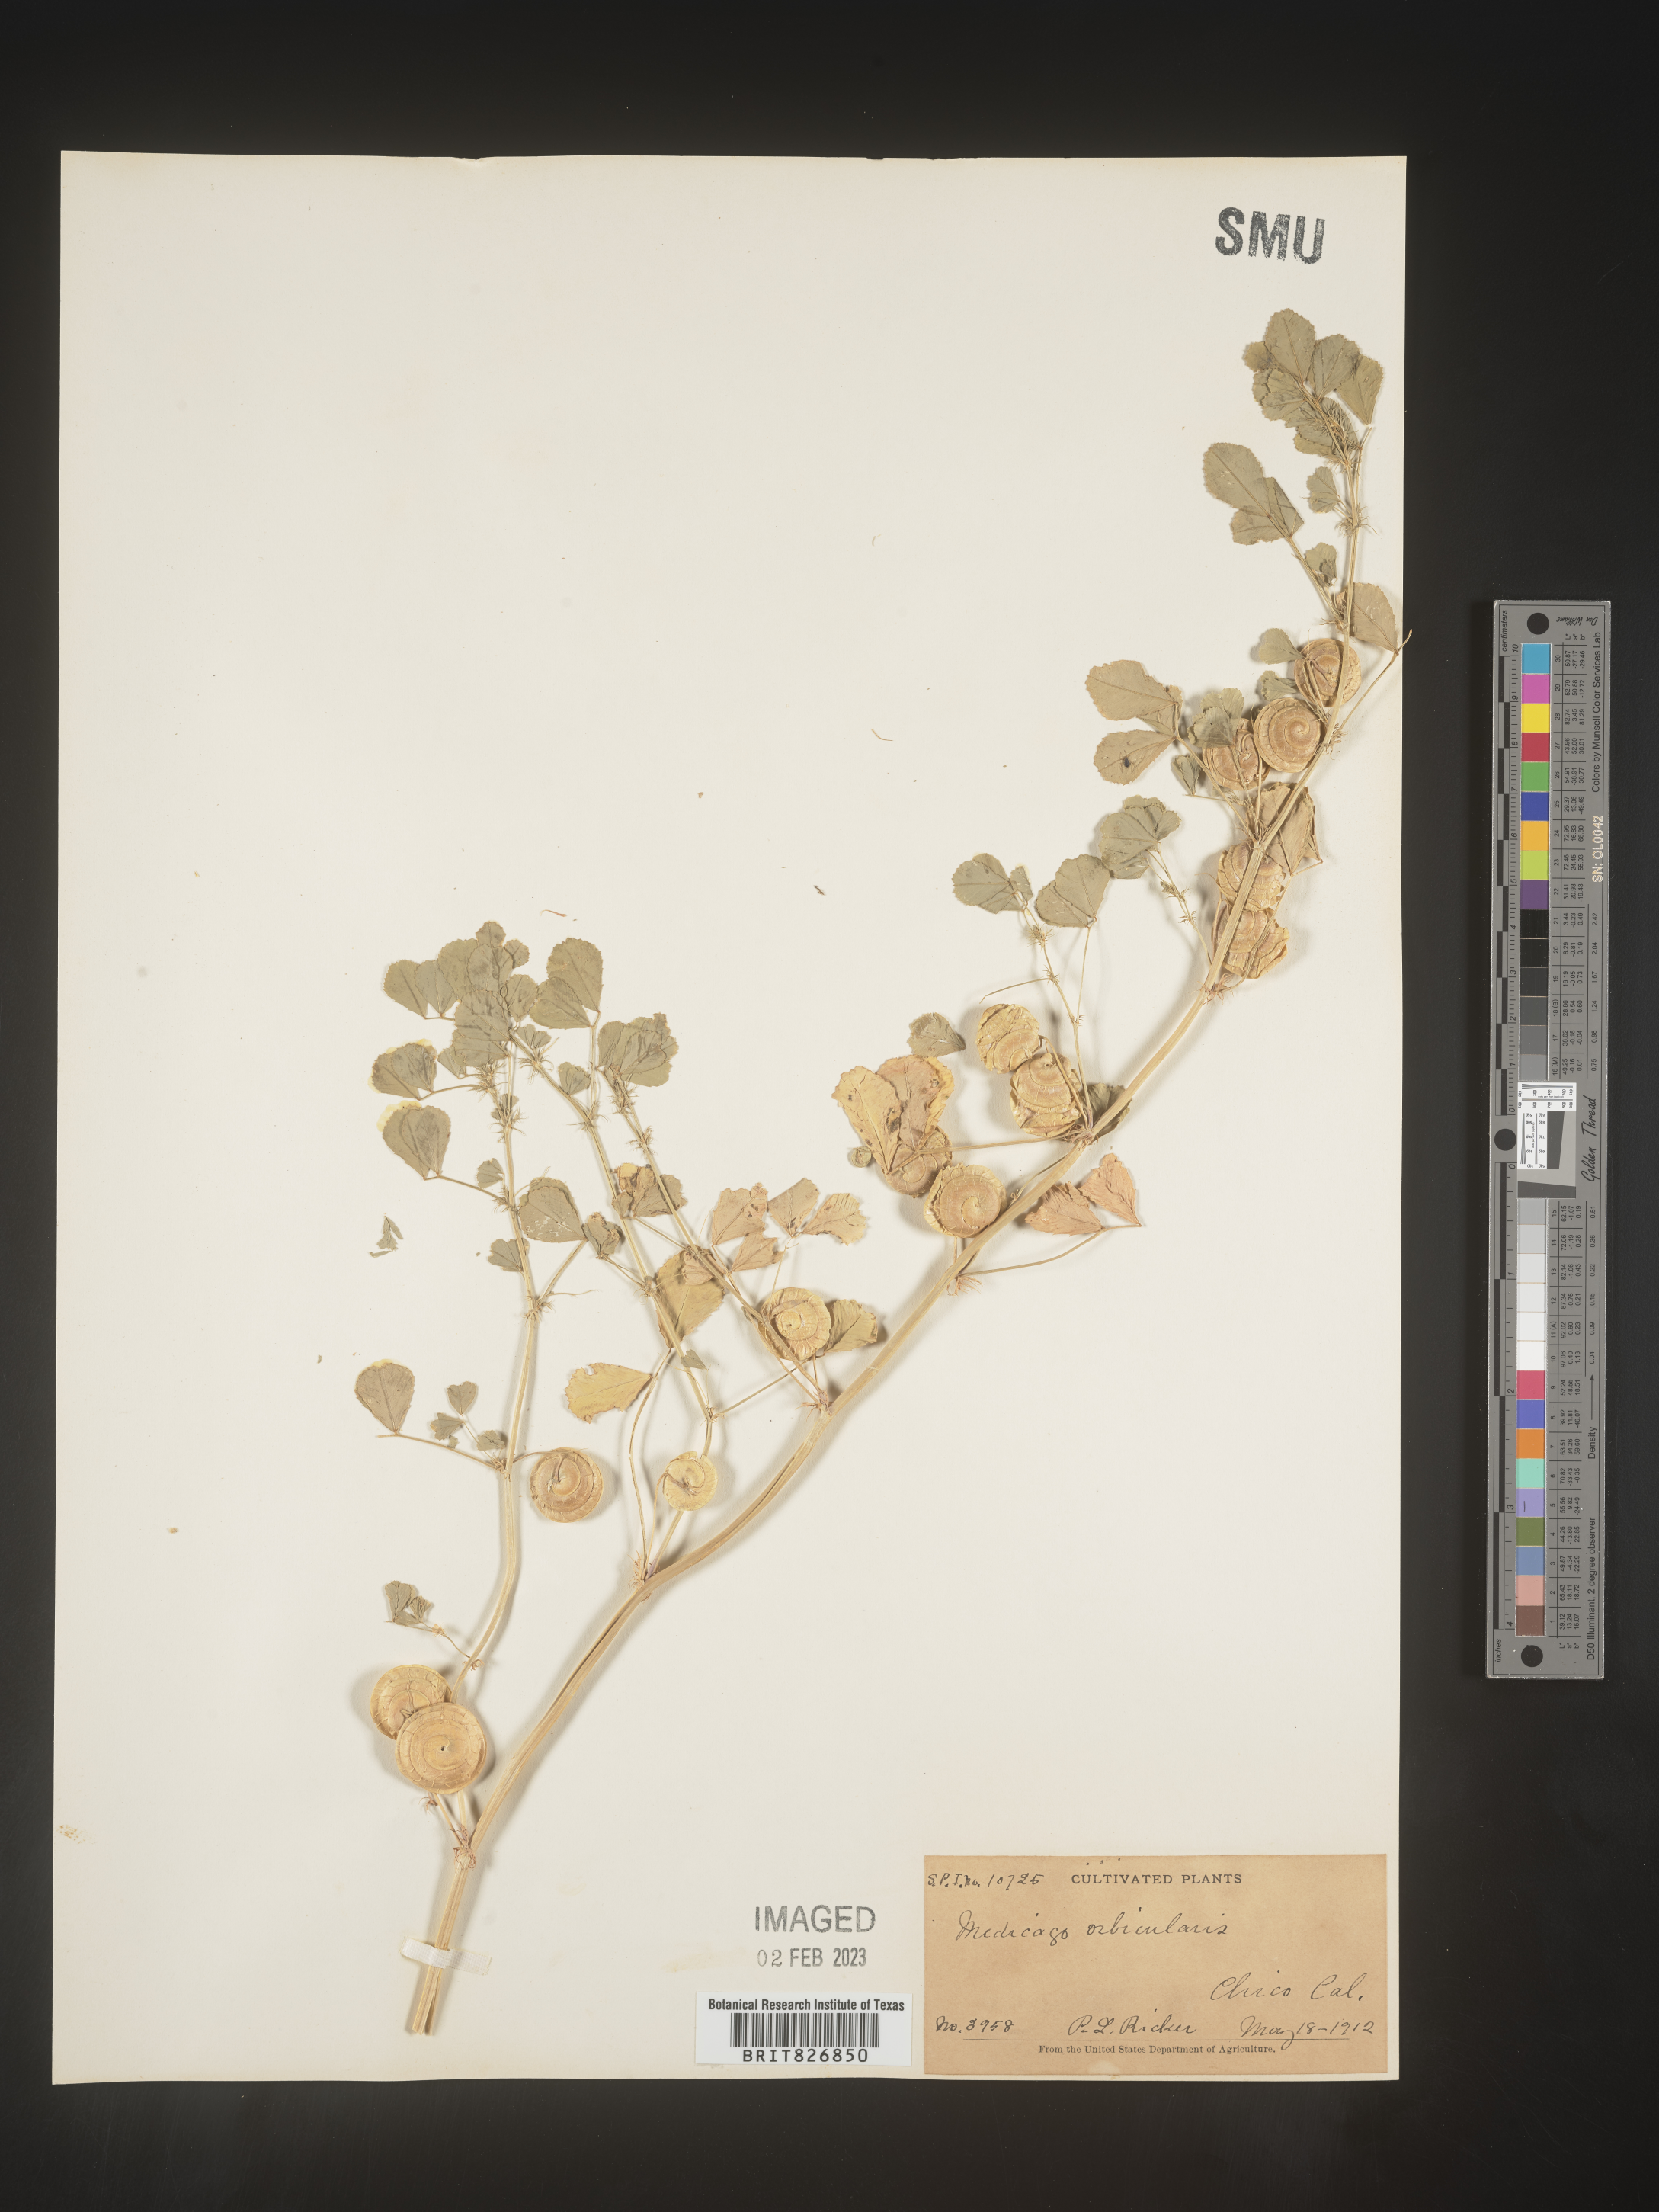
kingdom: Plantae
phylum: Tracheophyta
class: Magnoliopsida
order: Fabales
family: Fabaceae
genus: Medicago
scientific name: Medicago
